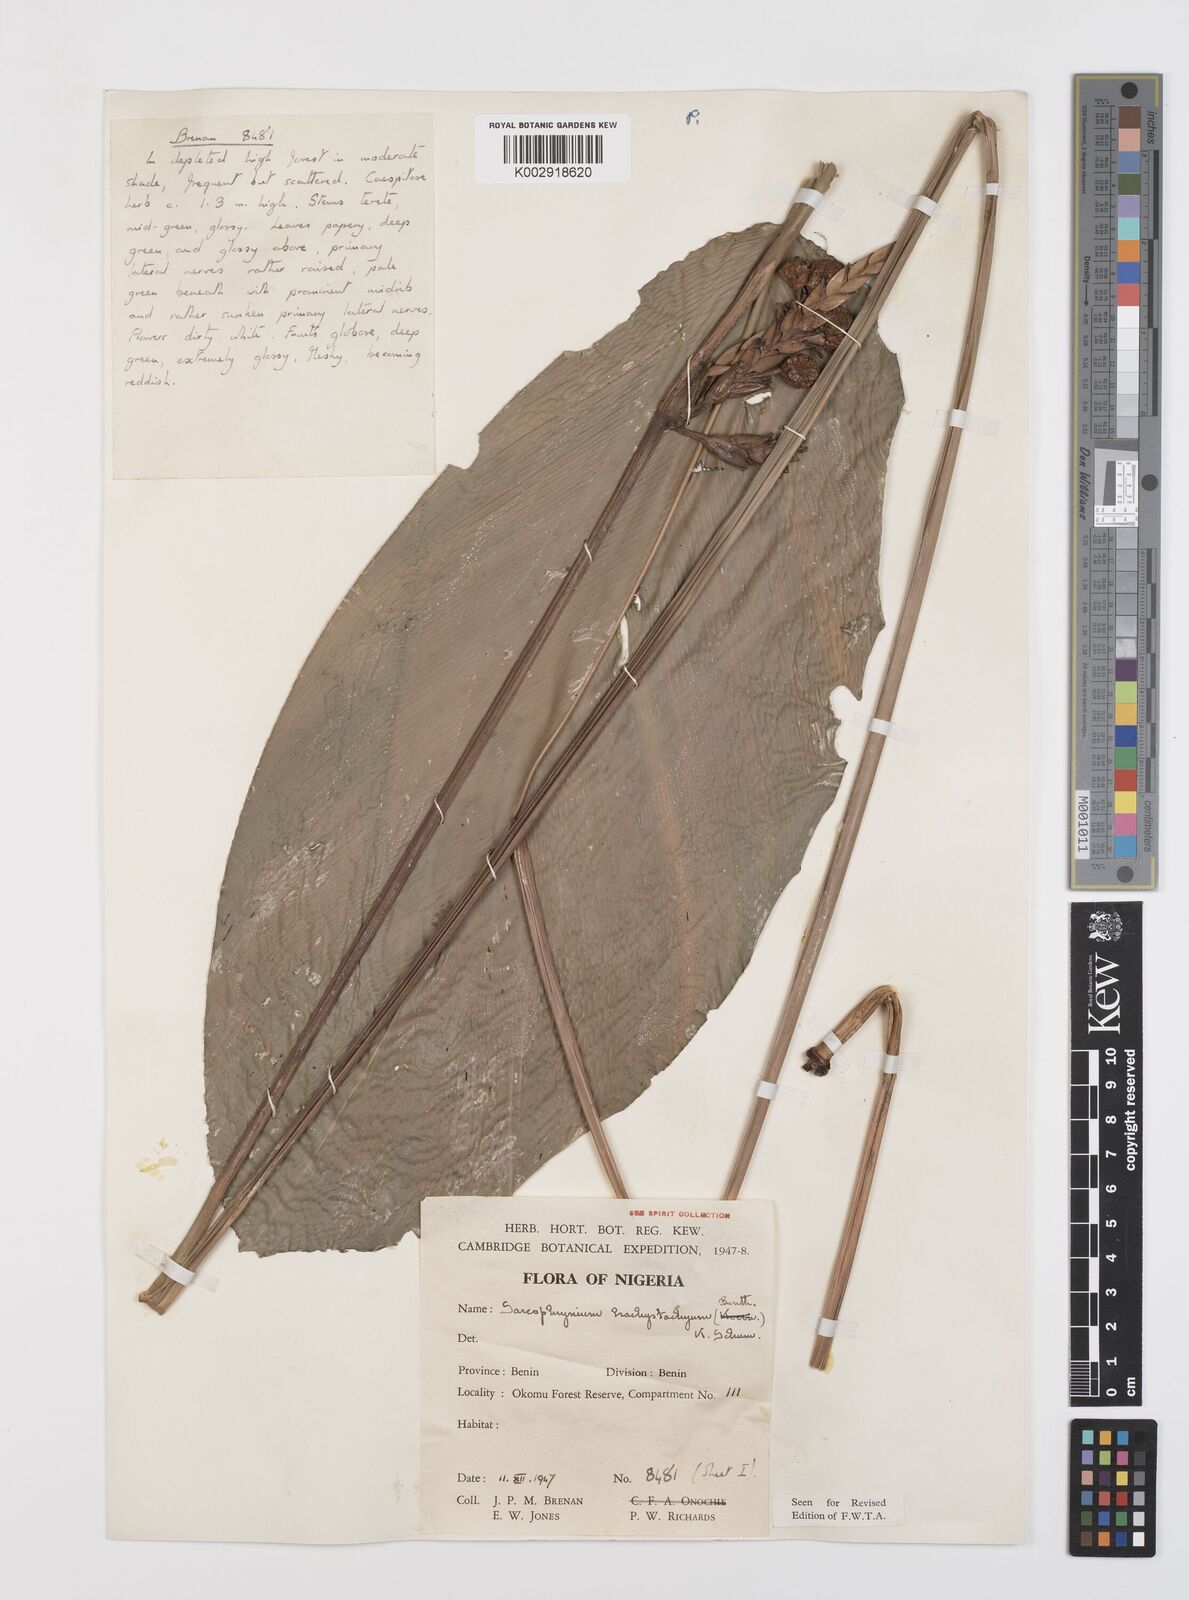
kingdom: Plantae
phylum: Tracheophyta
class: Liliopsida
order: Zingiberales
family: Marantaceae
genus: Sarcophrynium
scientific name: Sarcophrynium brachystachyum
